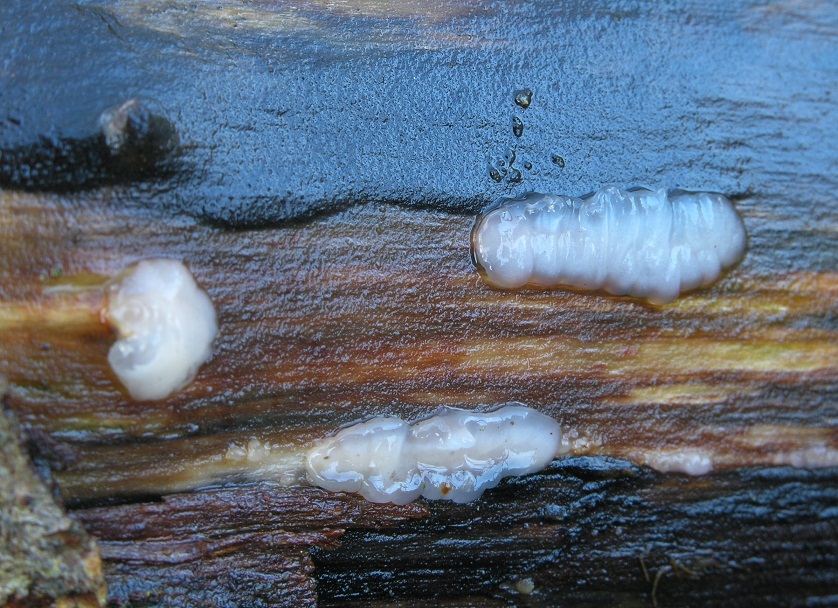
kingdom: Fungi
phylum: Basidiomycota
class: Agaricomycetes
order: Auriculariales
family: Hyaloriaceae
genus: Myxarium
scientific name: Myxarium nucleatum
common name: klar bævretop
